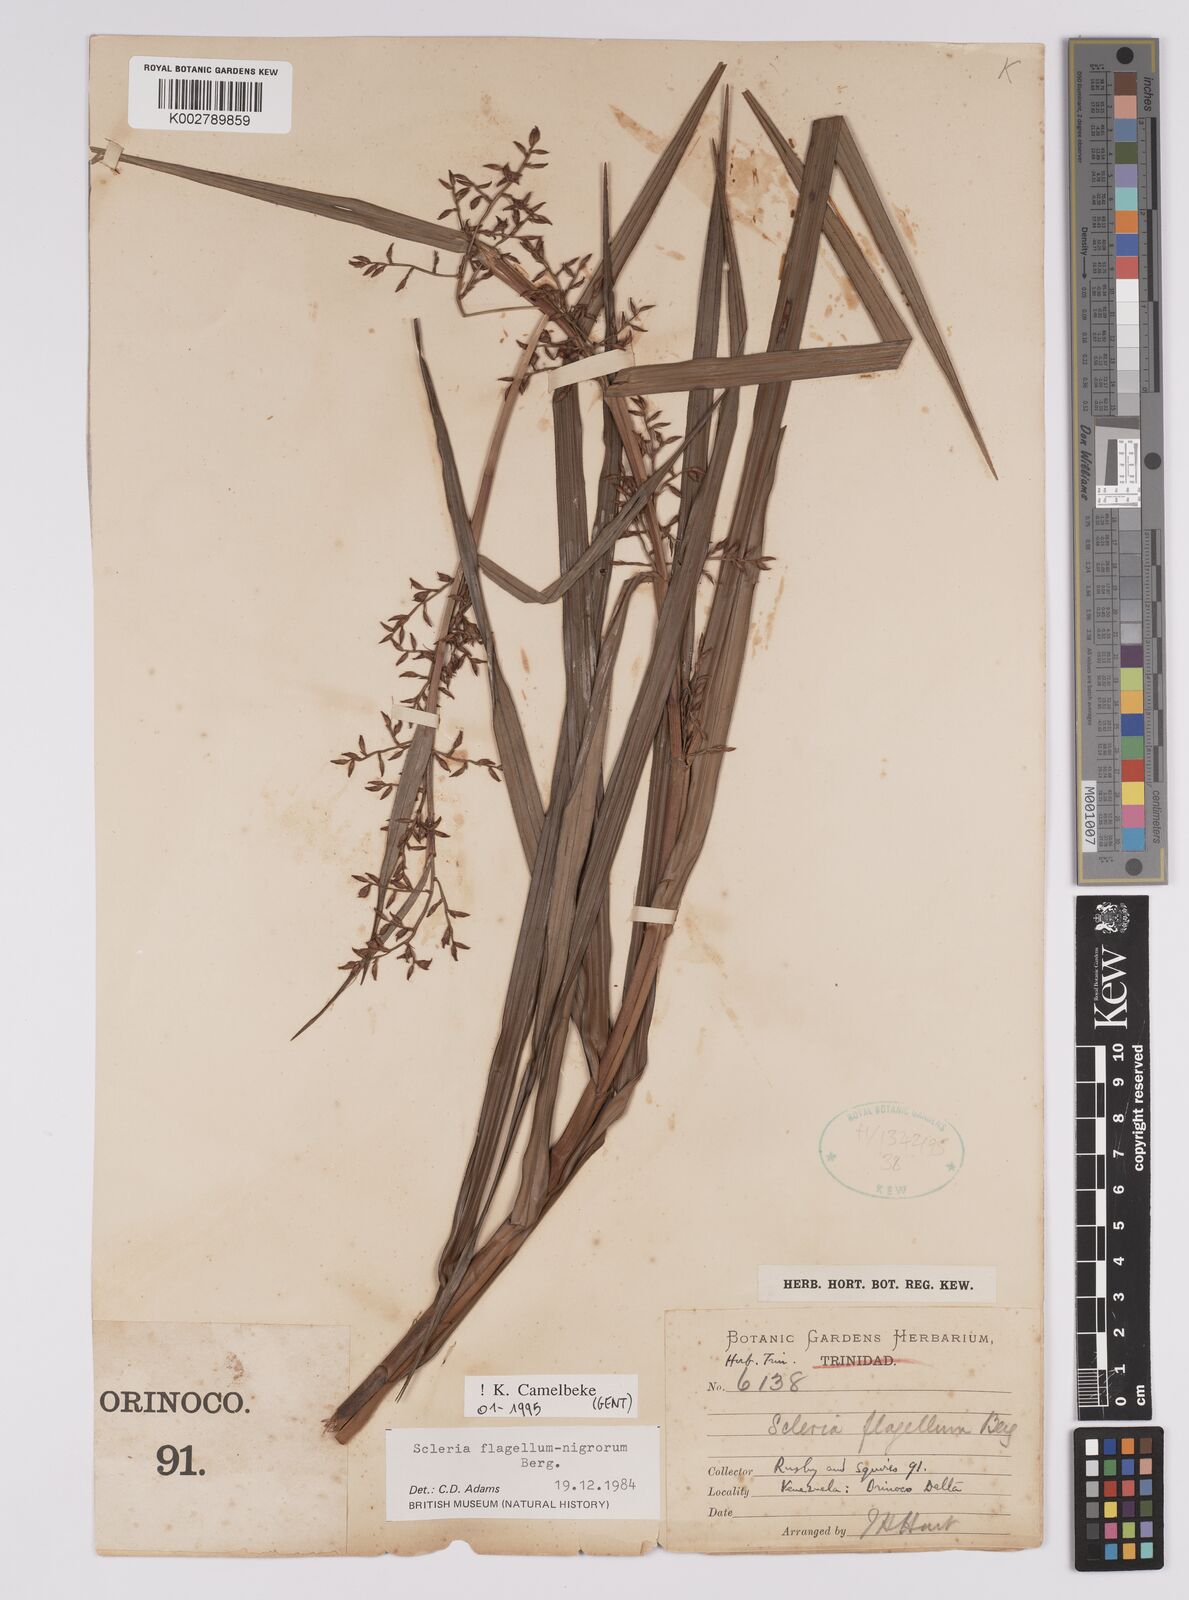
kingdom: Plantae
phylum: Tracheophyta
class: Liliopsida
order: Poales
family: Cyperaceae
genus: Scleria
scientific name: Scleria flagellum-nigrorum
